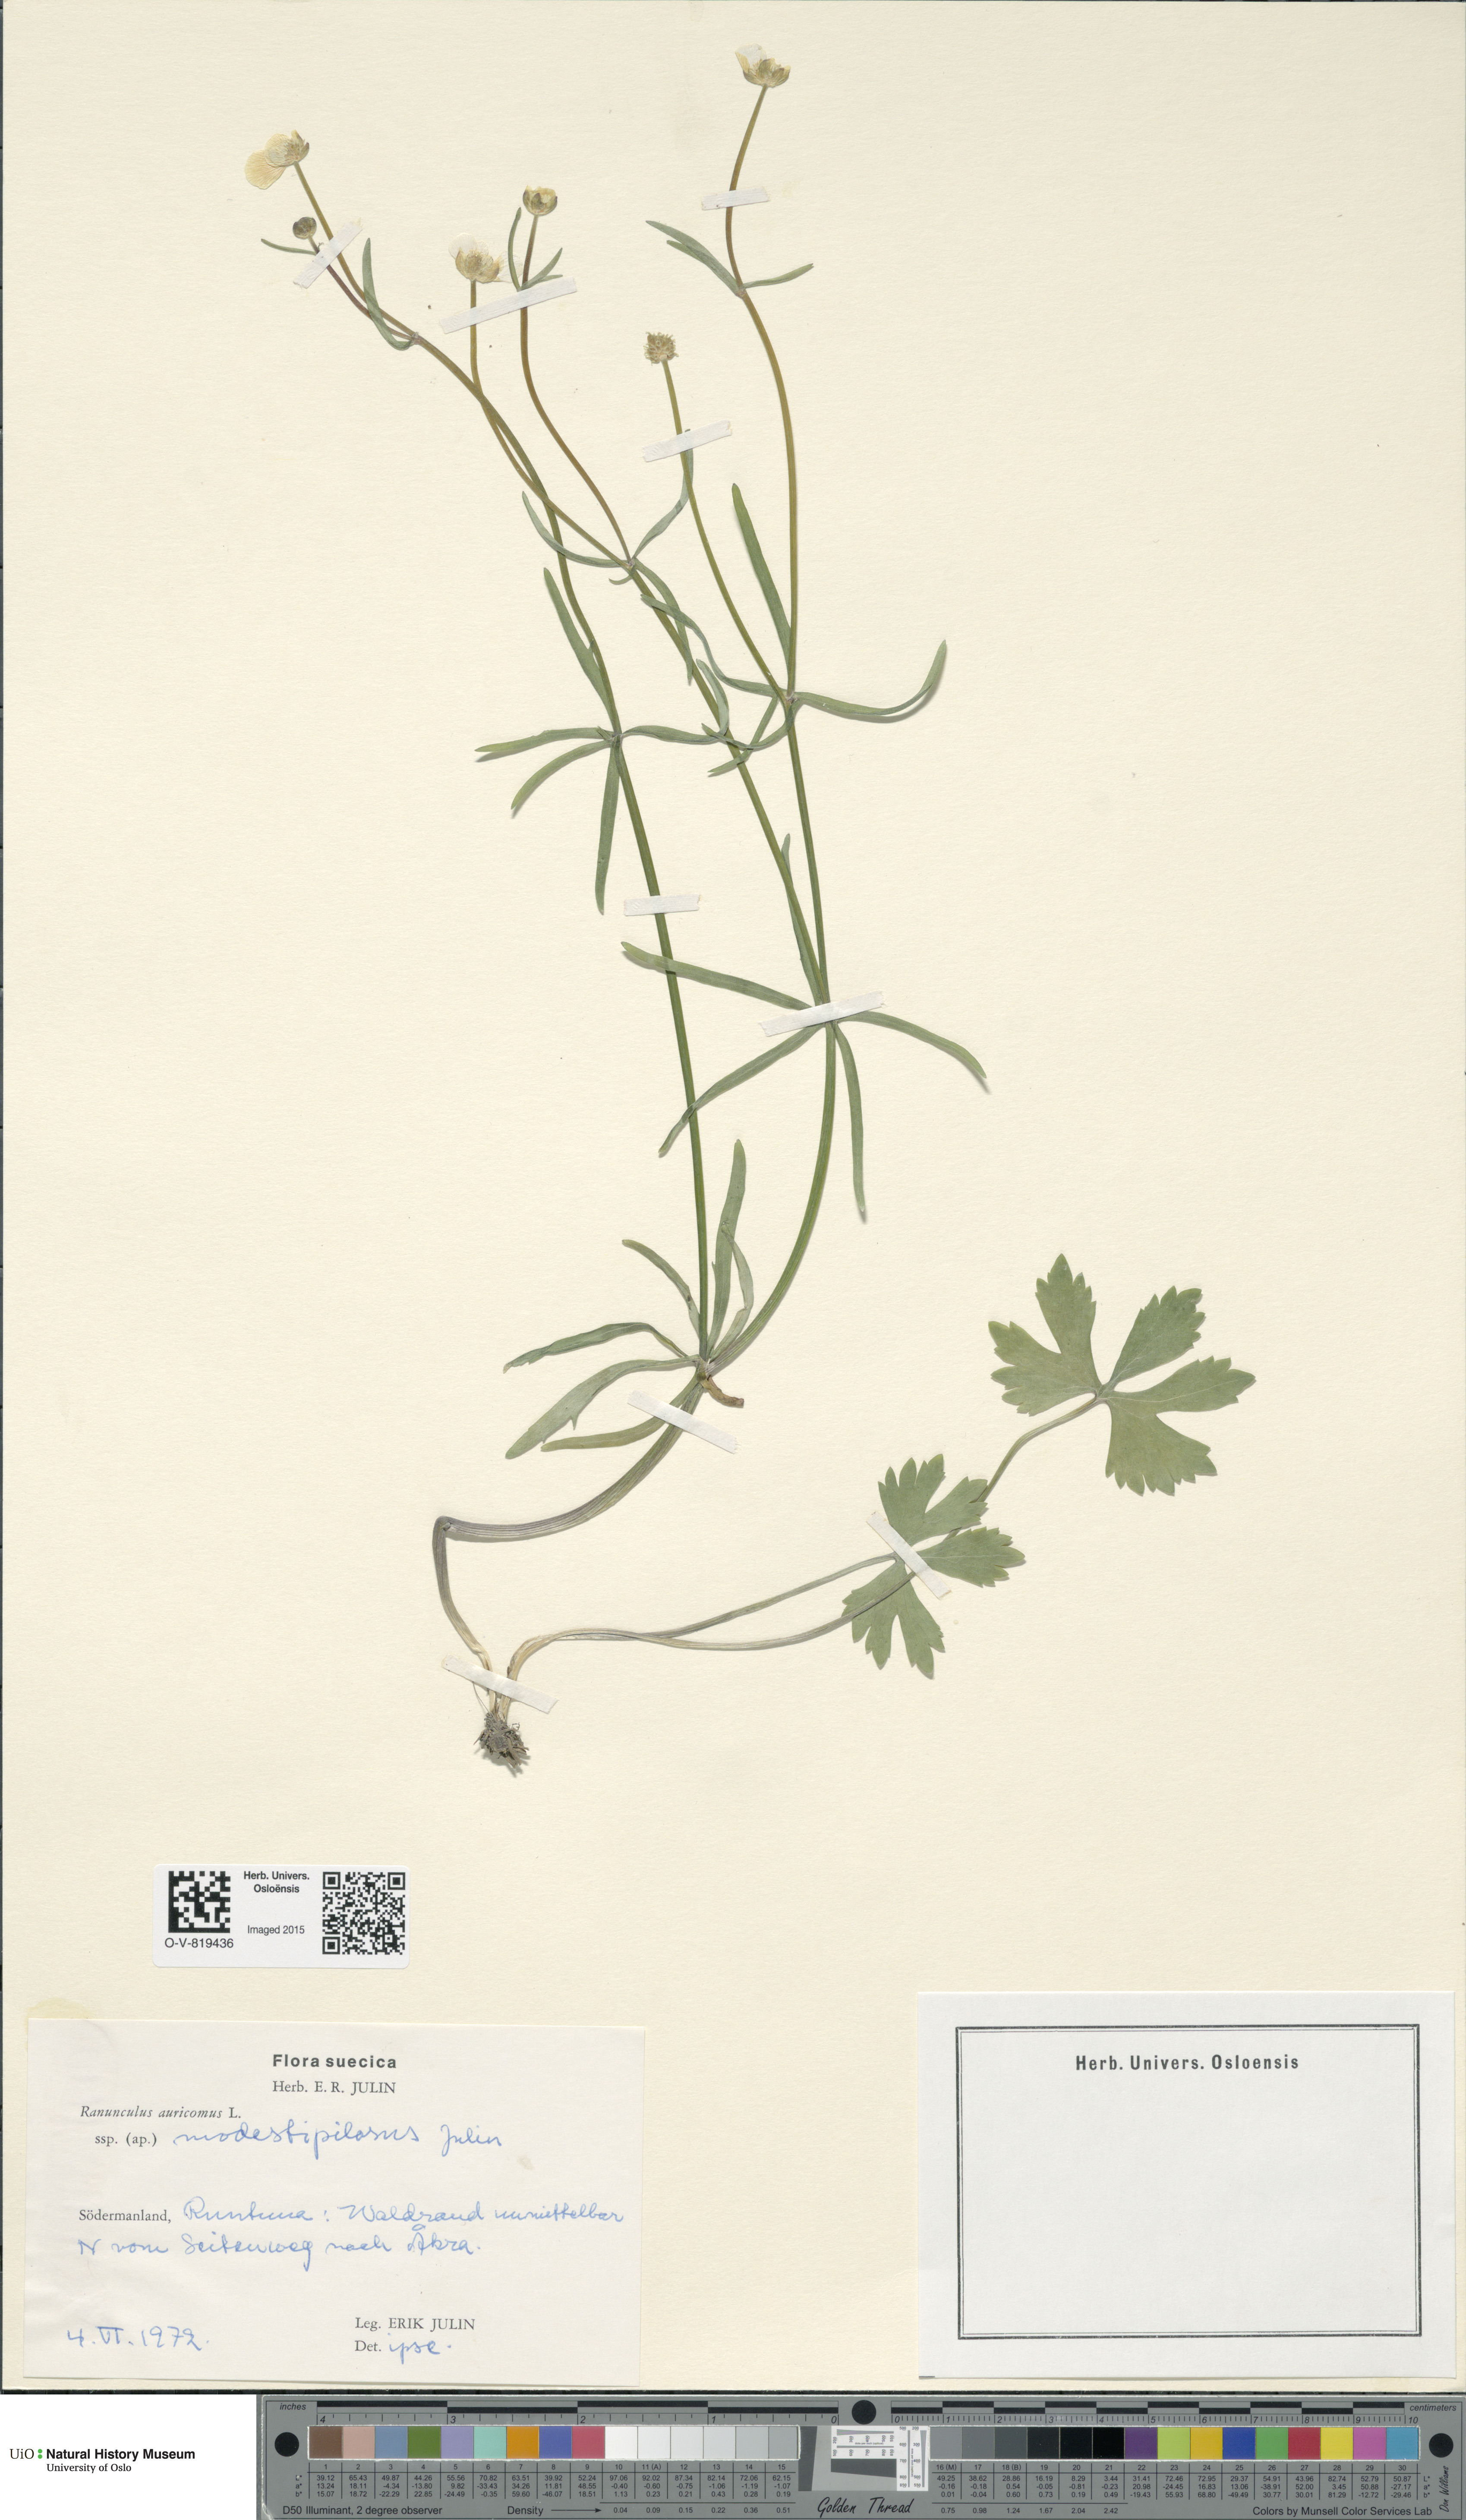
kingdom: Plantae
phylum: Tracheophyta
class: Magnoliopsida
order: Ranunculales
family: Ranunculaceae
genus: Ranunculus
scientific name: Ranunculus modestipilosus
